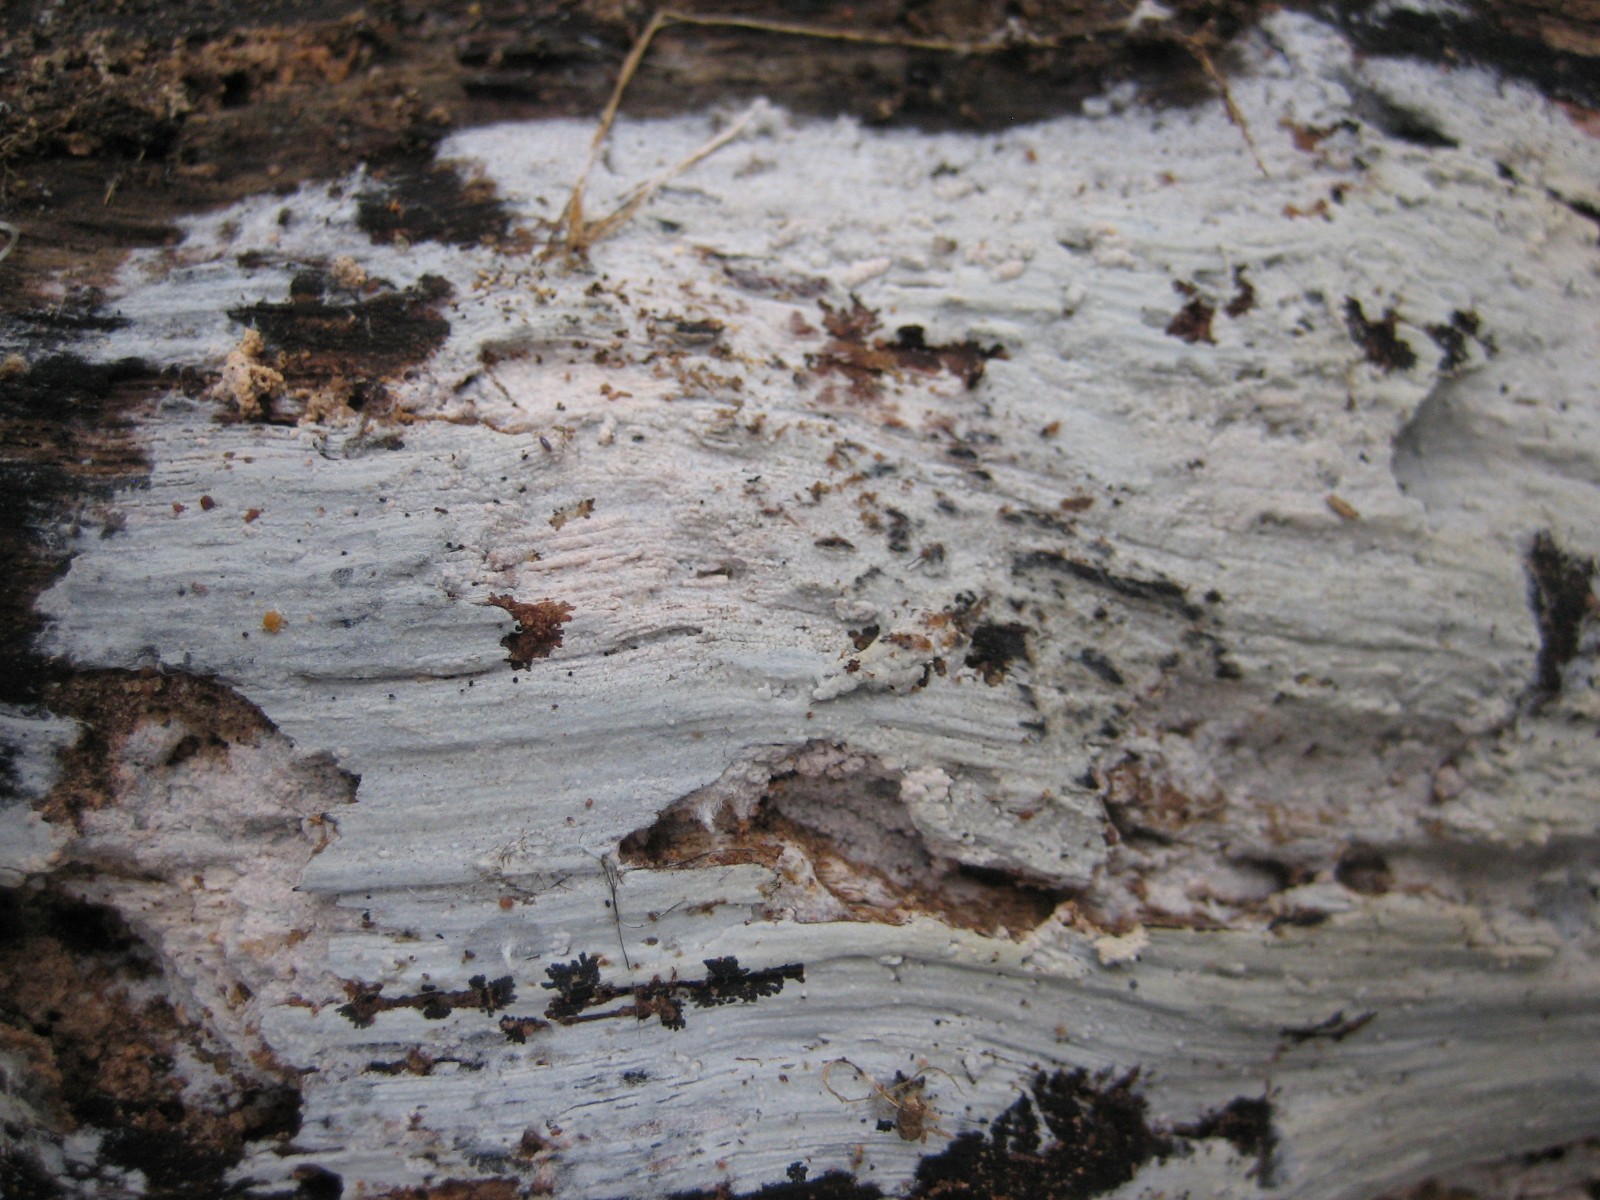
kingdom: Fungi
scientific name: Fungi
